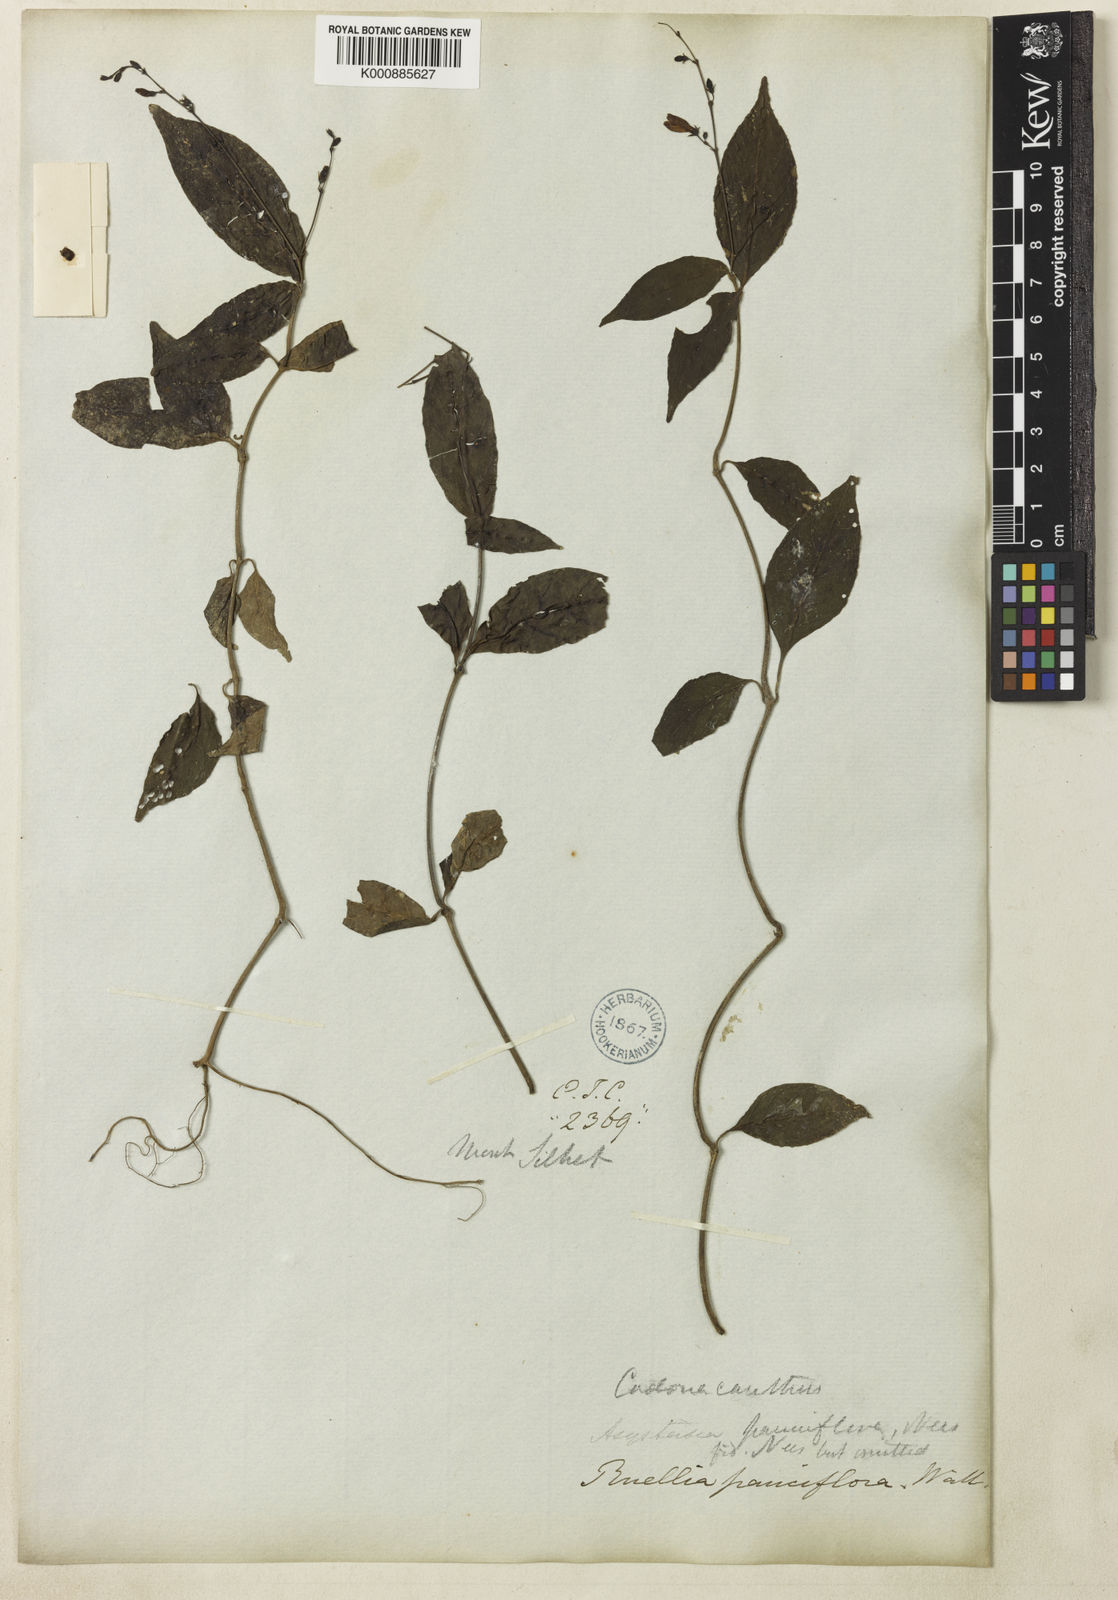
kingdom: Plantae
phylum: Tracheophyta
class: Magnoliopsida
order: Lamiales
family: Acanthaceae
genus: Codonacanthus
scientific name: Codonacanthus pauciflorus
